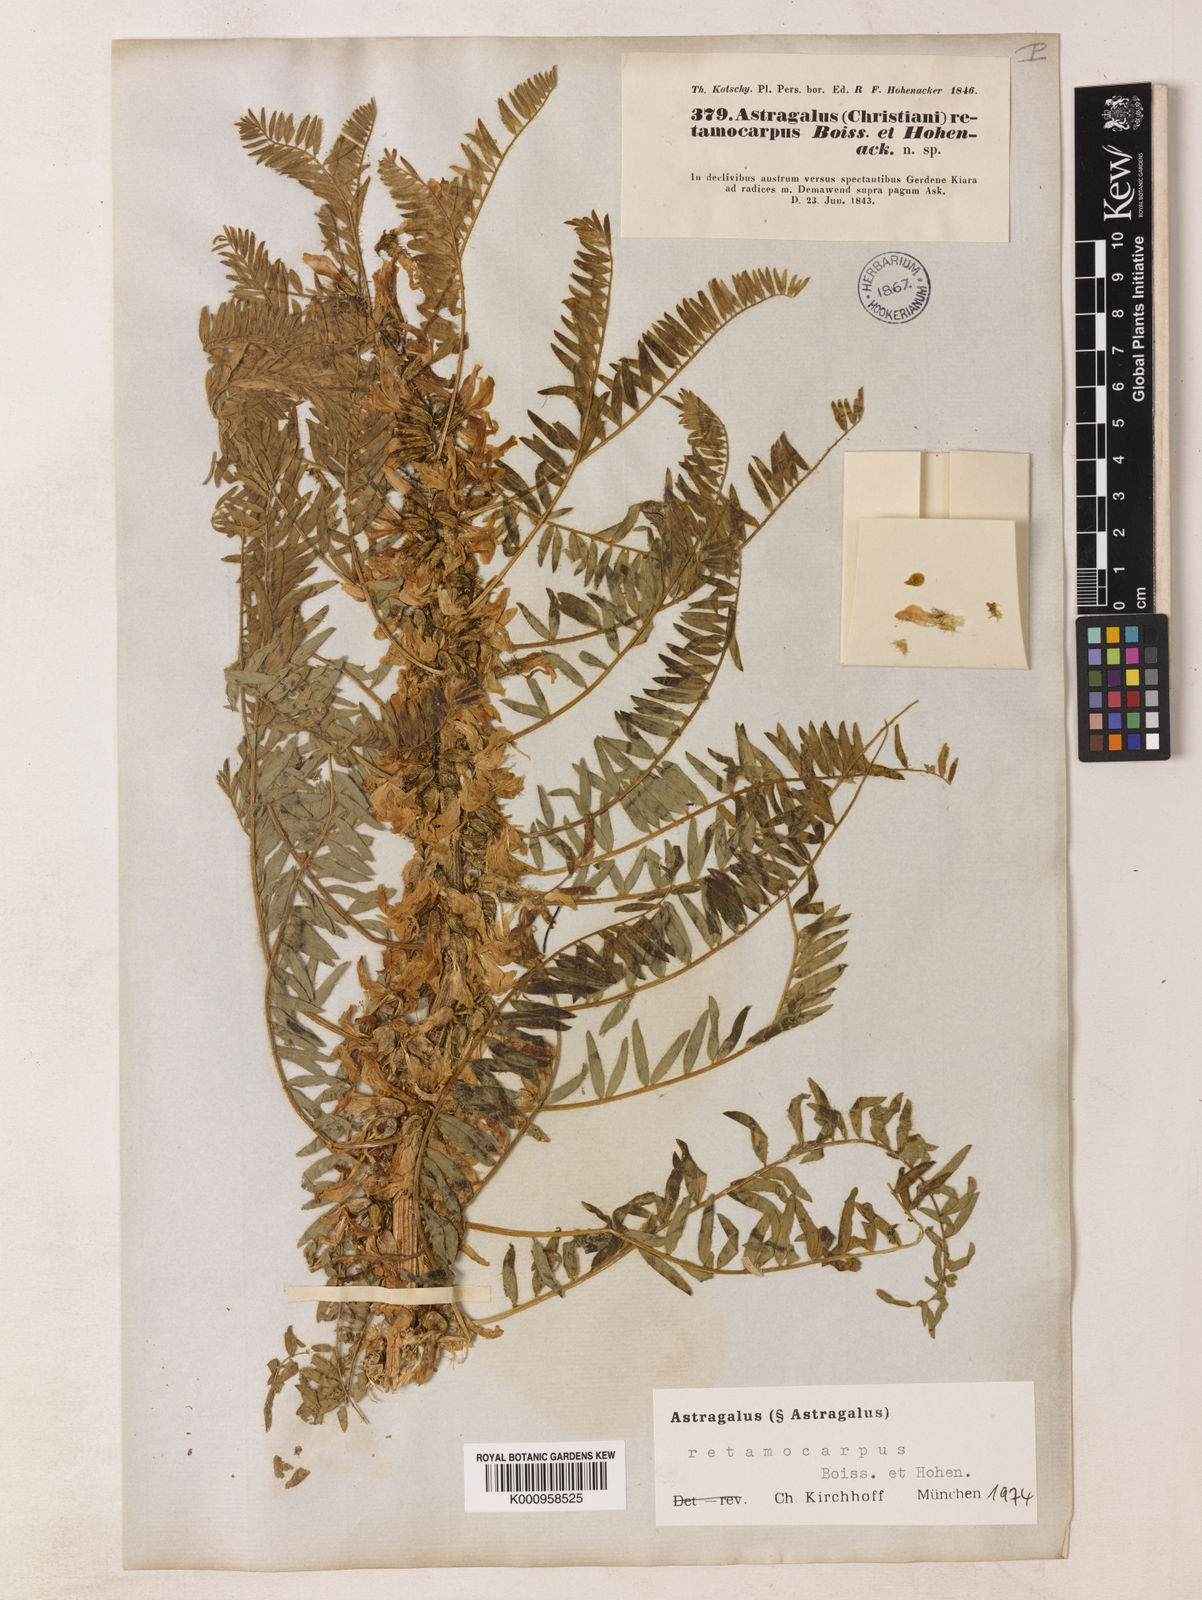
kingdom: Plantae
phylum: Tracheophyta
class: Magnoliopsida
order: Fabales
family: Fabaceae
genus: Astragalus
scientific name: Astragalus retamocarpus
